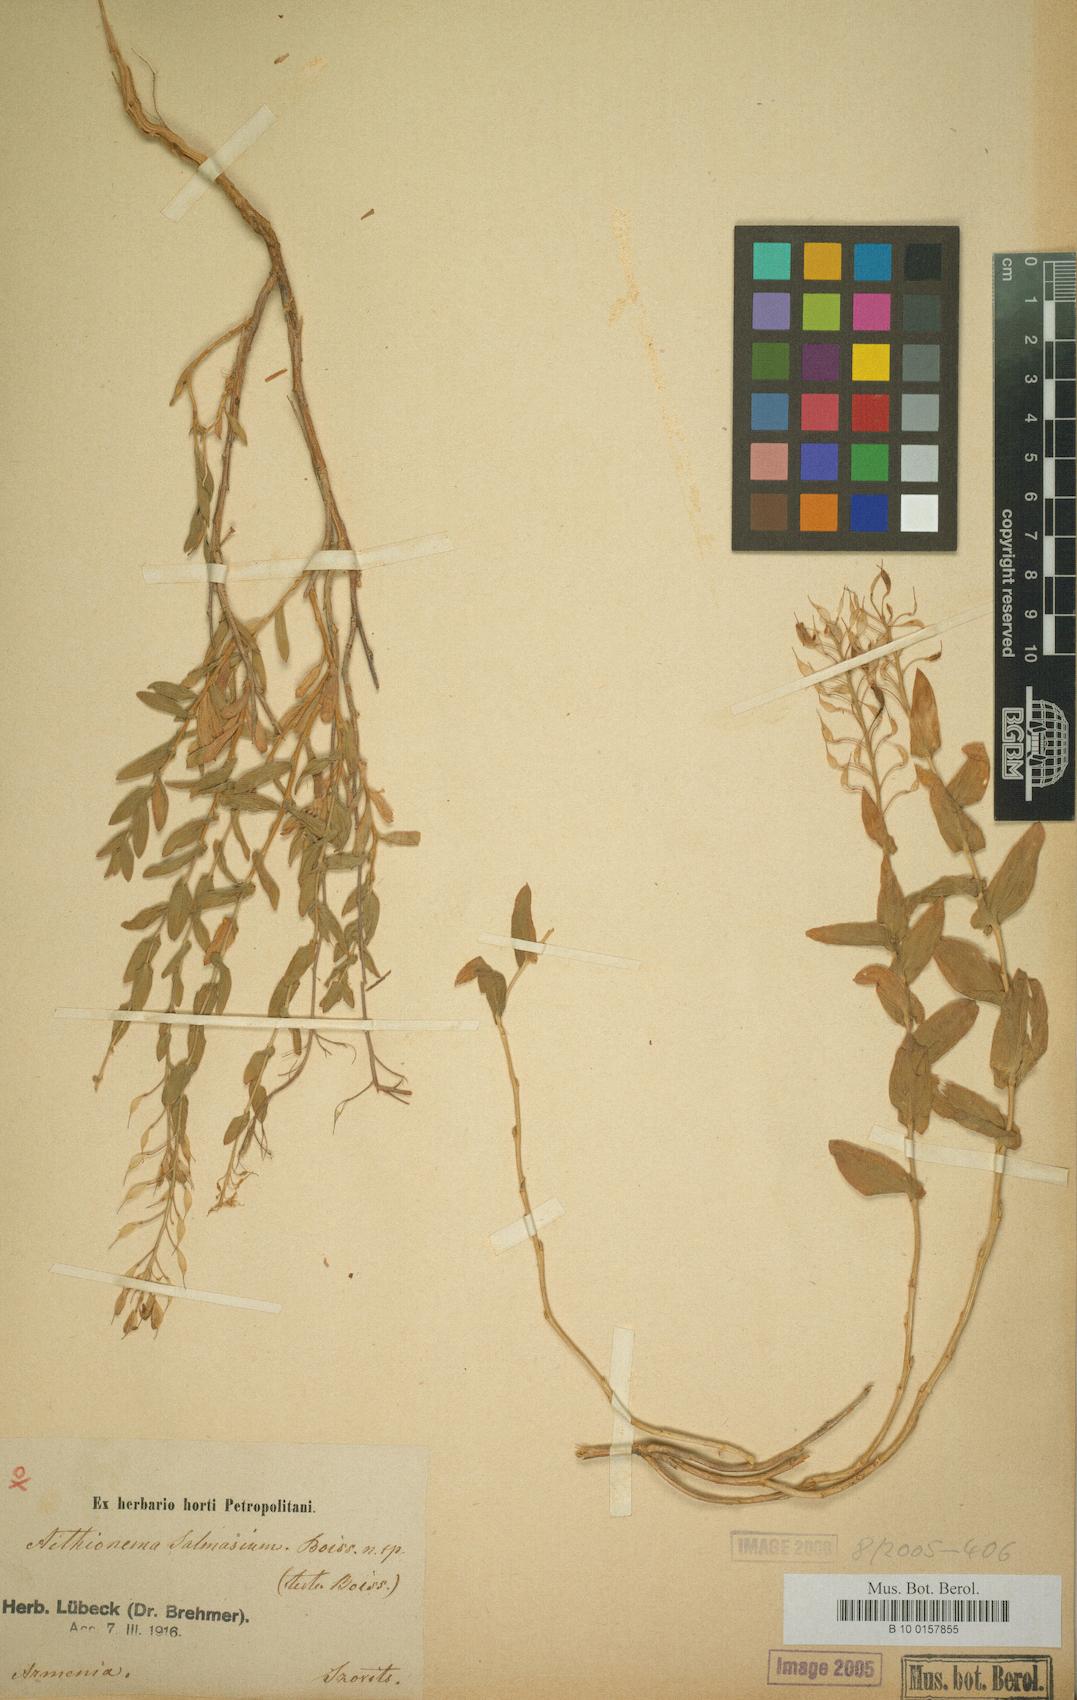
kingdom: Plantae
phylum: Tracheophyta
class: Magnoliopsida
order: Brassicales
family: Brassicaceae
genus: Noccaea
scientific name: Noccaea trinervia
